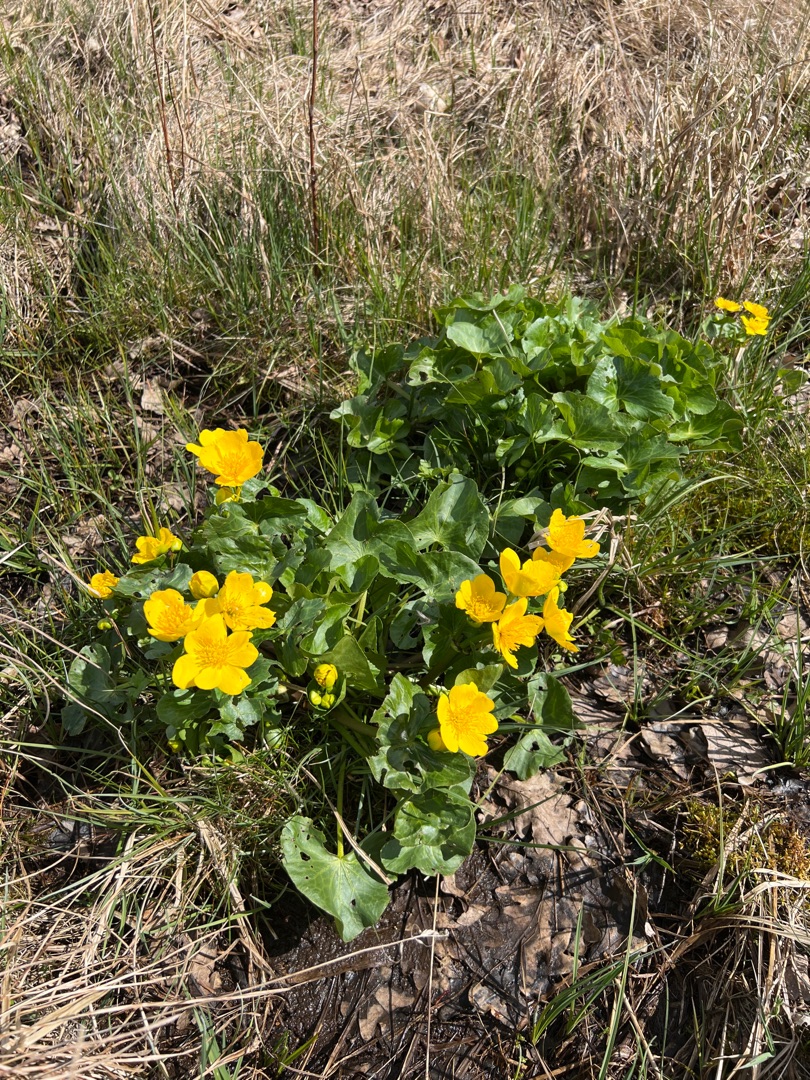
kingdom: Plantae
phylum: Tracheophyta
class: Magnoliopsida
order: Ranunculales
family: Ranunculaceae
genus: Caltha
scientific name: Caltha palustris
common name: Eng-kabbeleje
